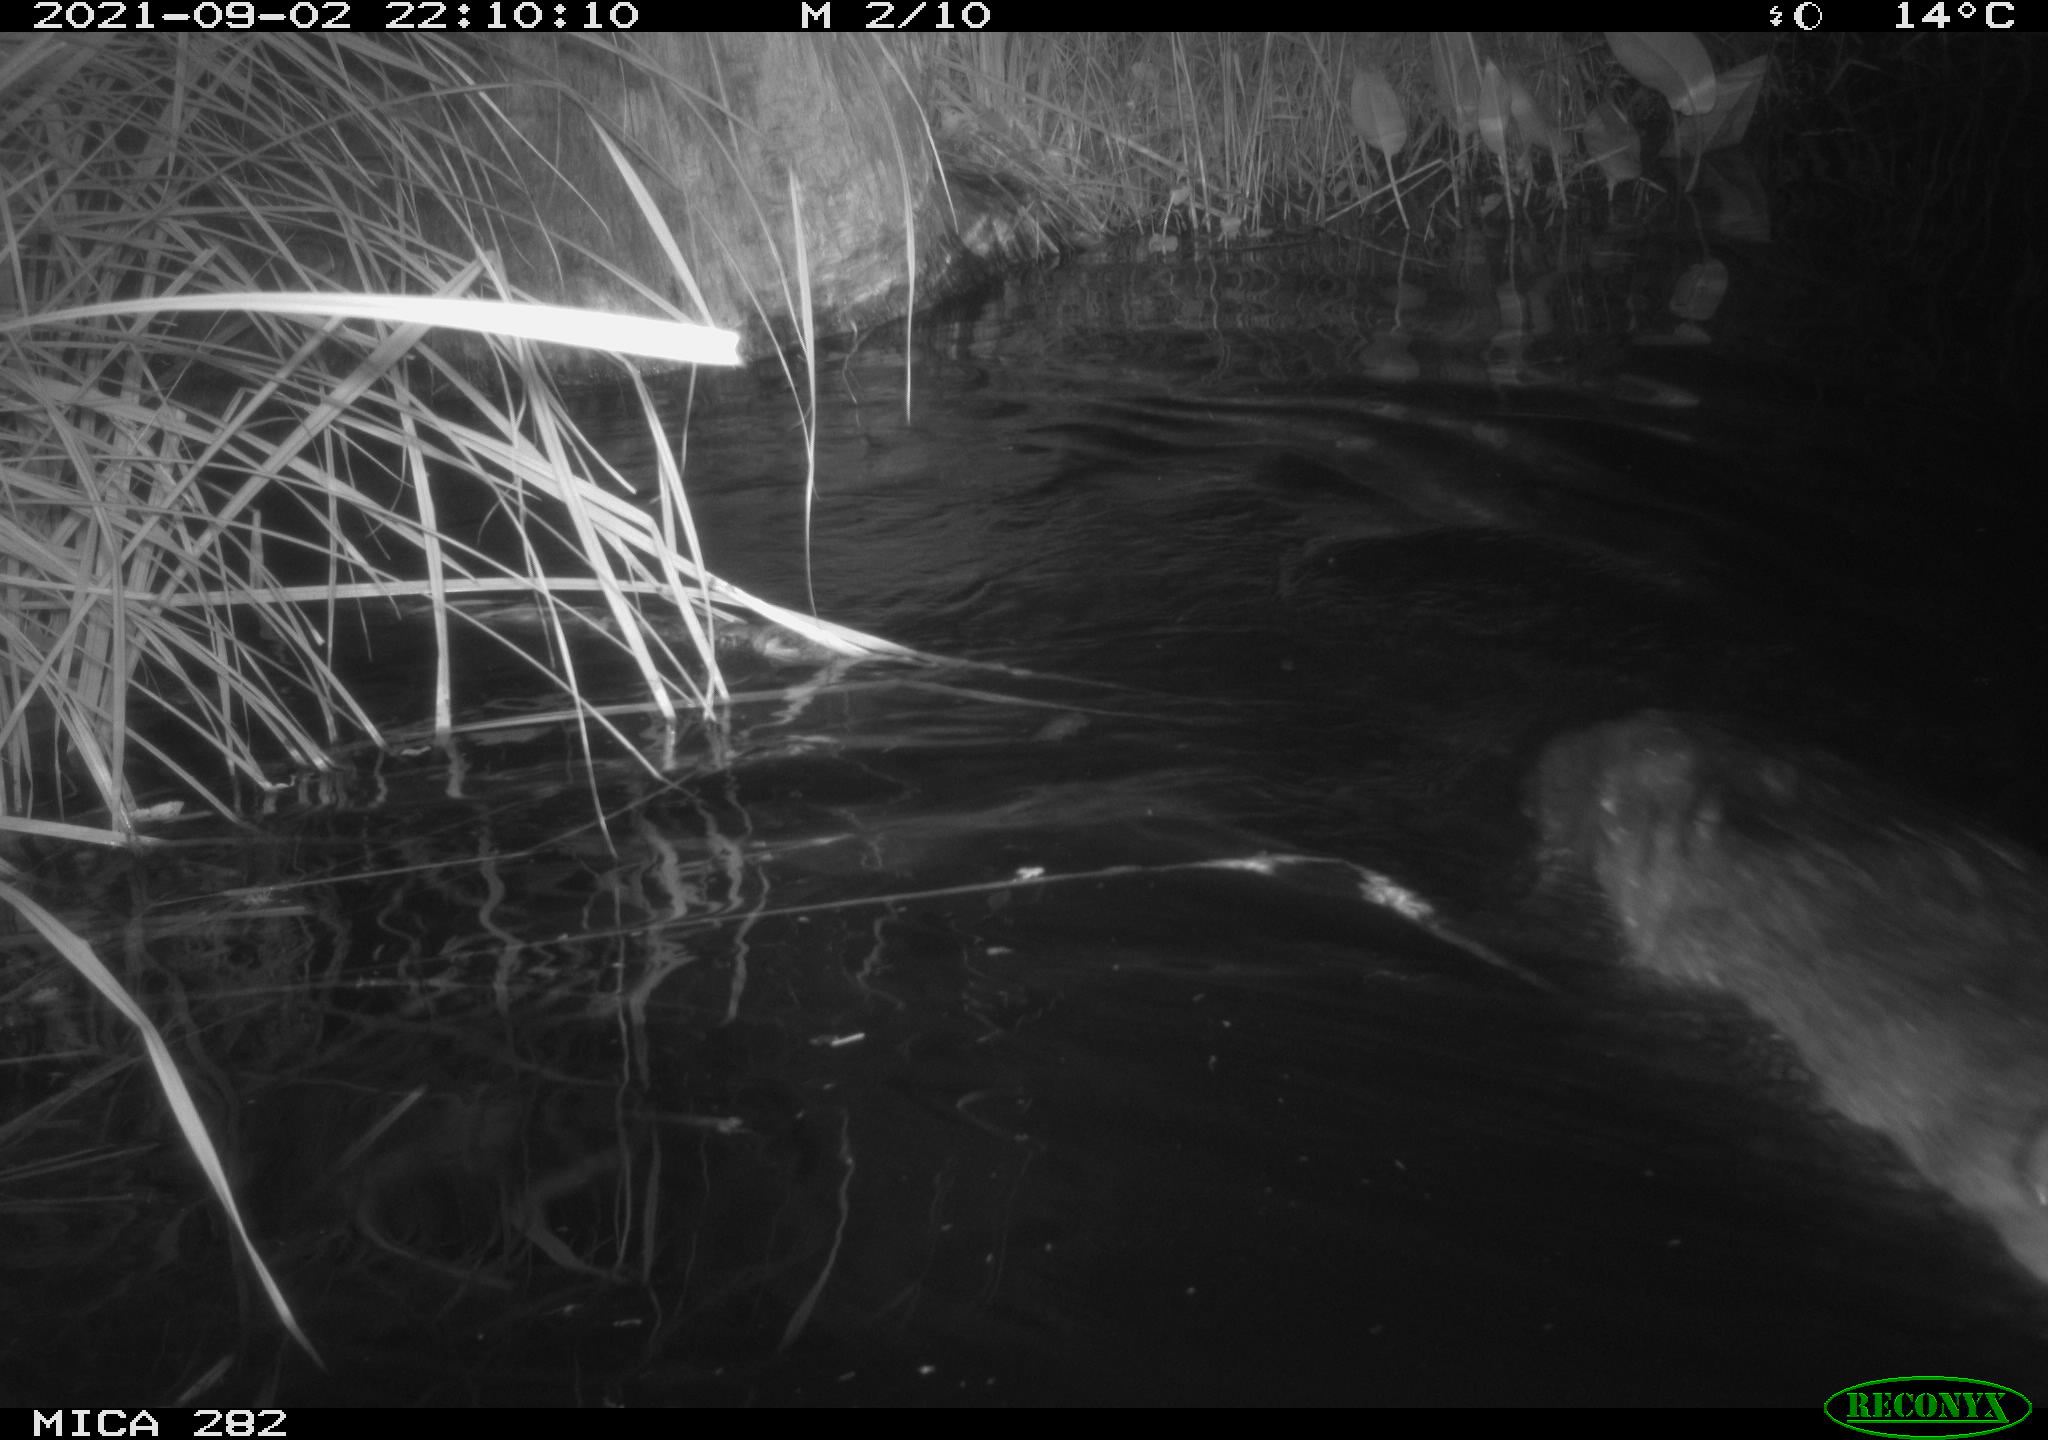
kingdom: Animalia
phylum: Chordata
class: Mammalia
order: Rodentia
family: Castoridae
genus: Castor
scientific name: Castor fiber
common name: Eurasian beaver
